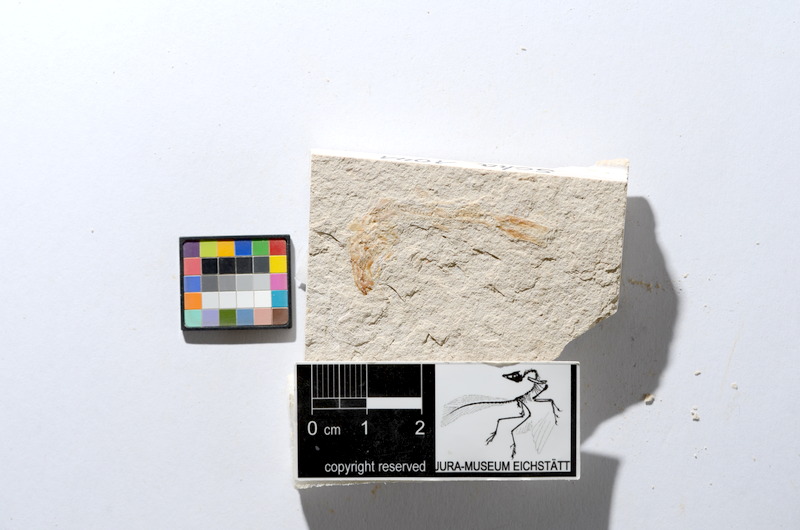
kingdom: Animalia
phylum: Chordata
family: Ascalaboidae
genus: Tharsis
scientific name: Tharsis dubius
